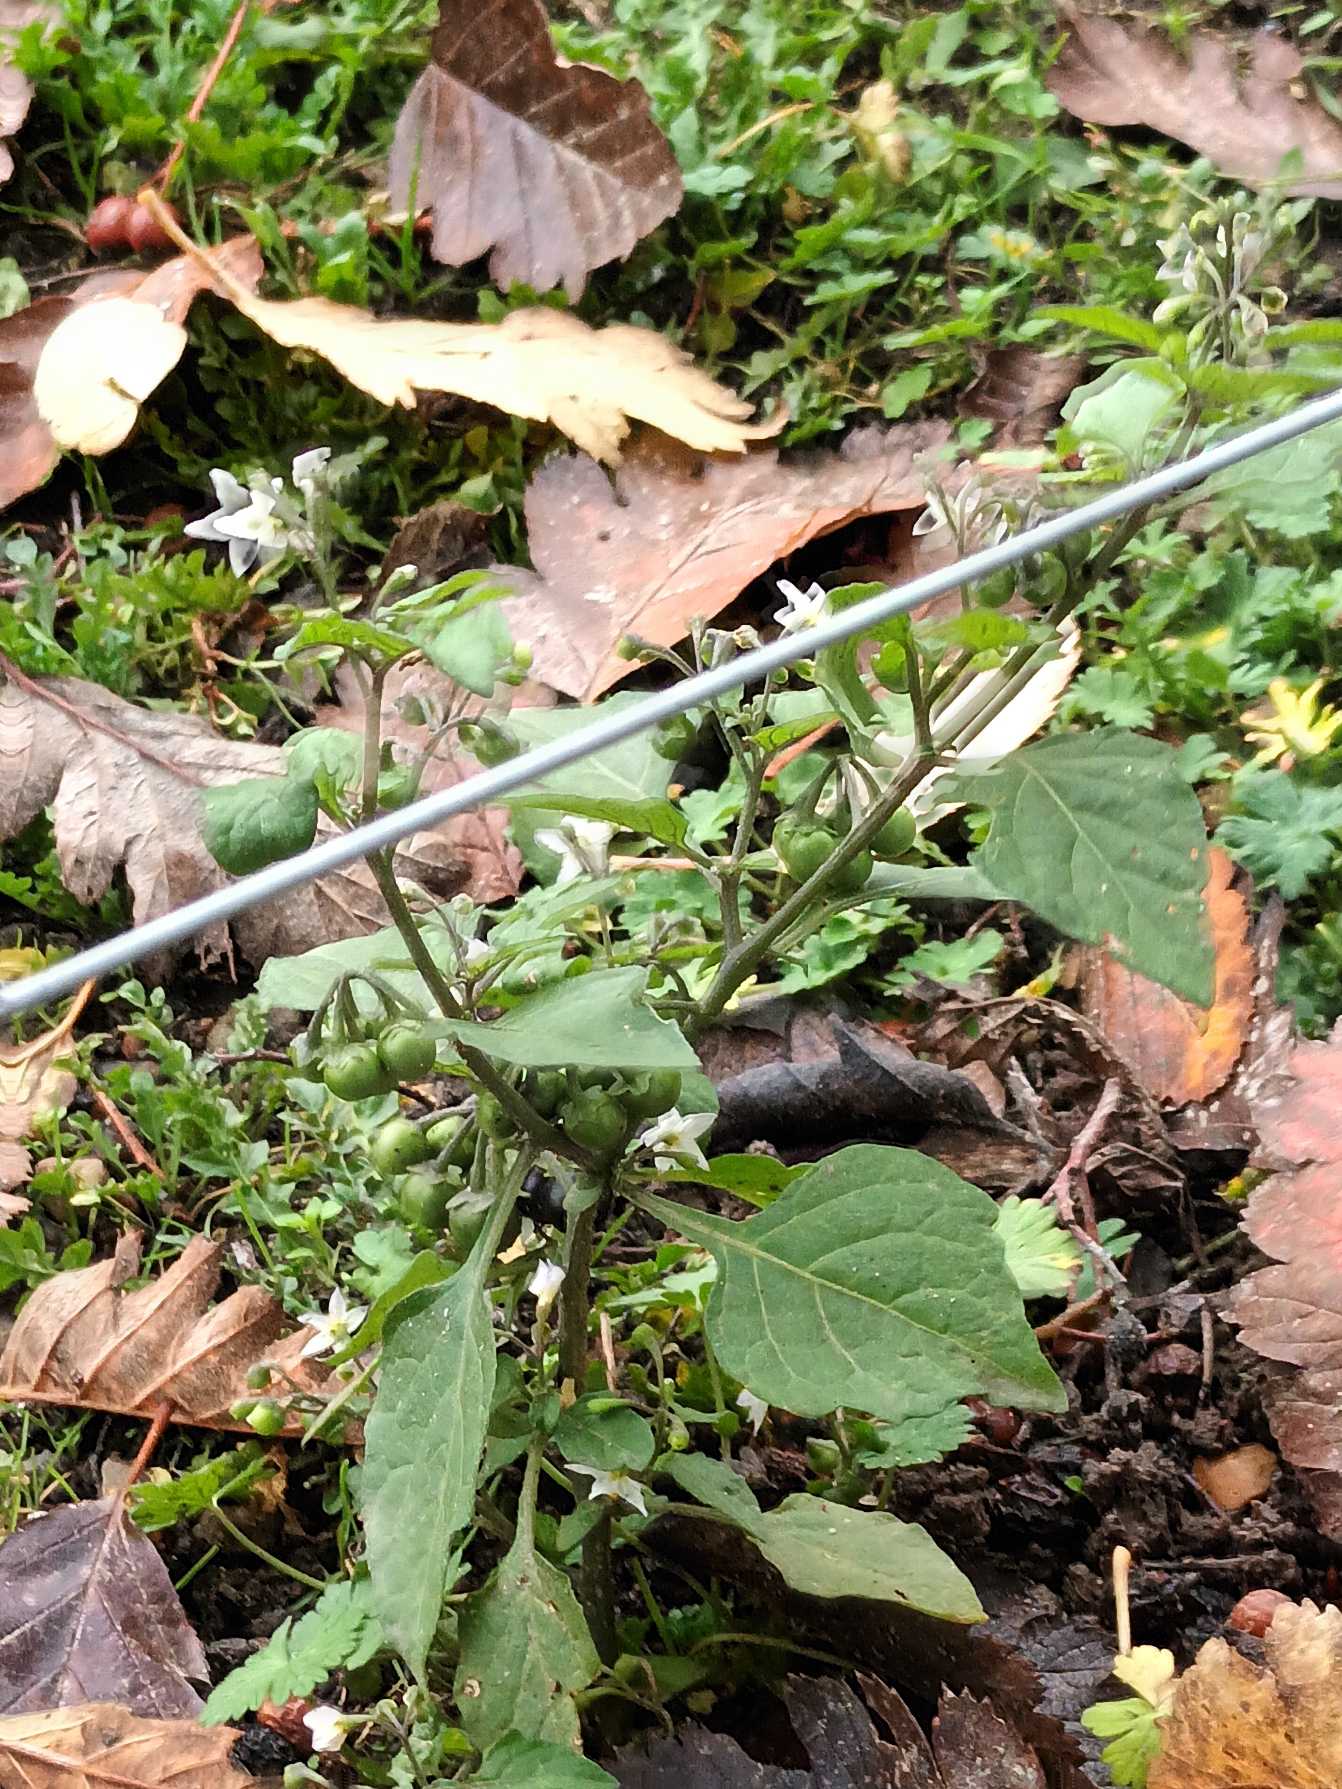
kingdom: Plantae
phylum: Tracheophyta
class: Magnoliopsida
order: Solanales
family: Solanaceae
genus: Solanum
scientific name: Solanum nigrum
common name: Sort natskygge
